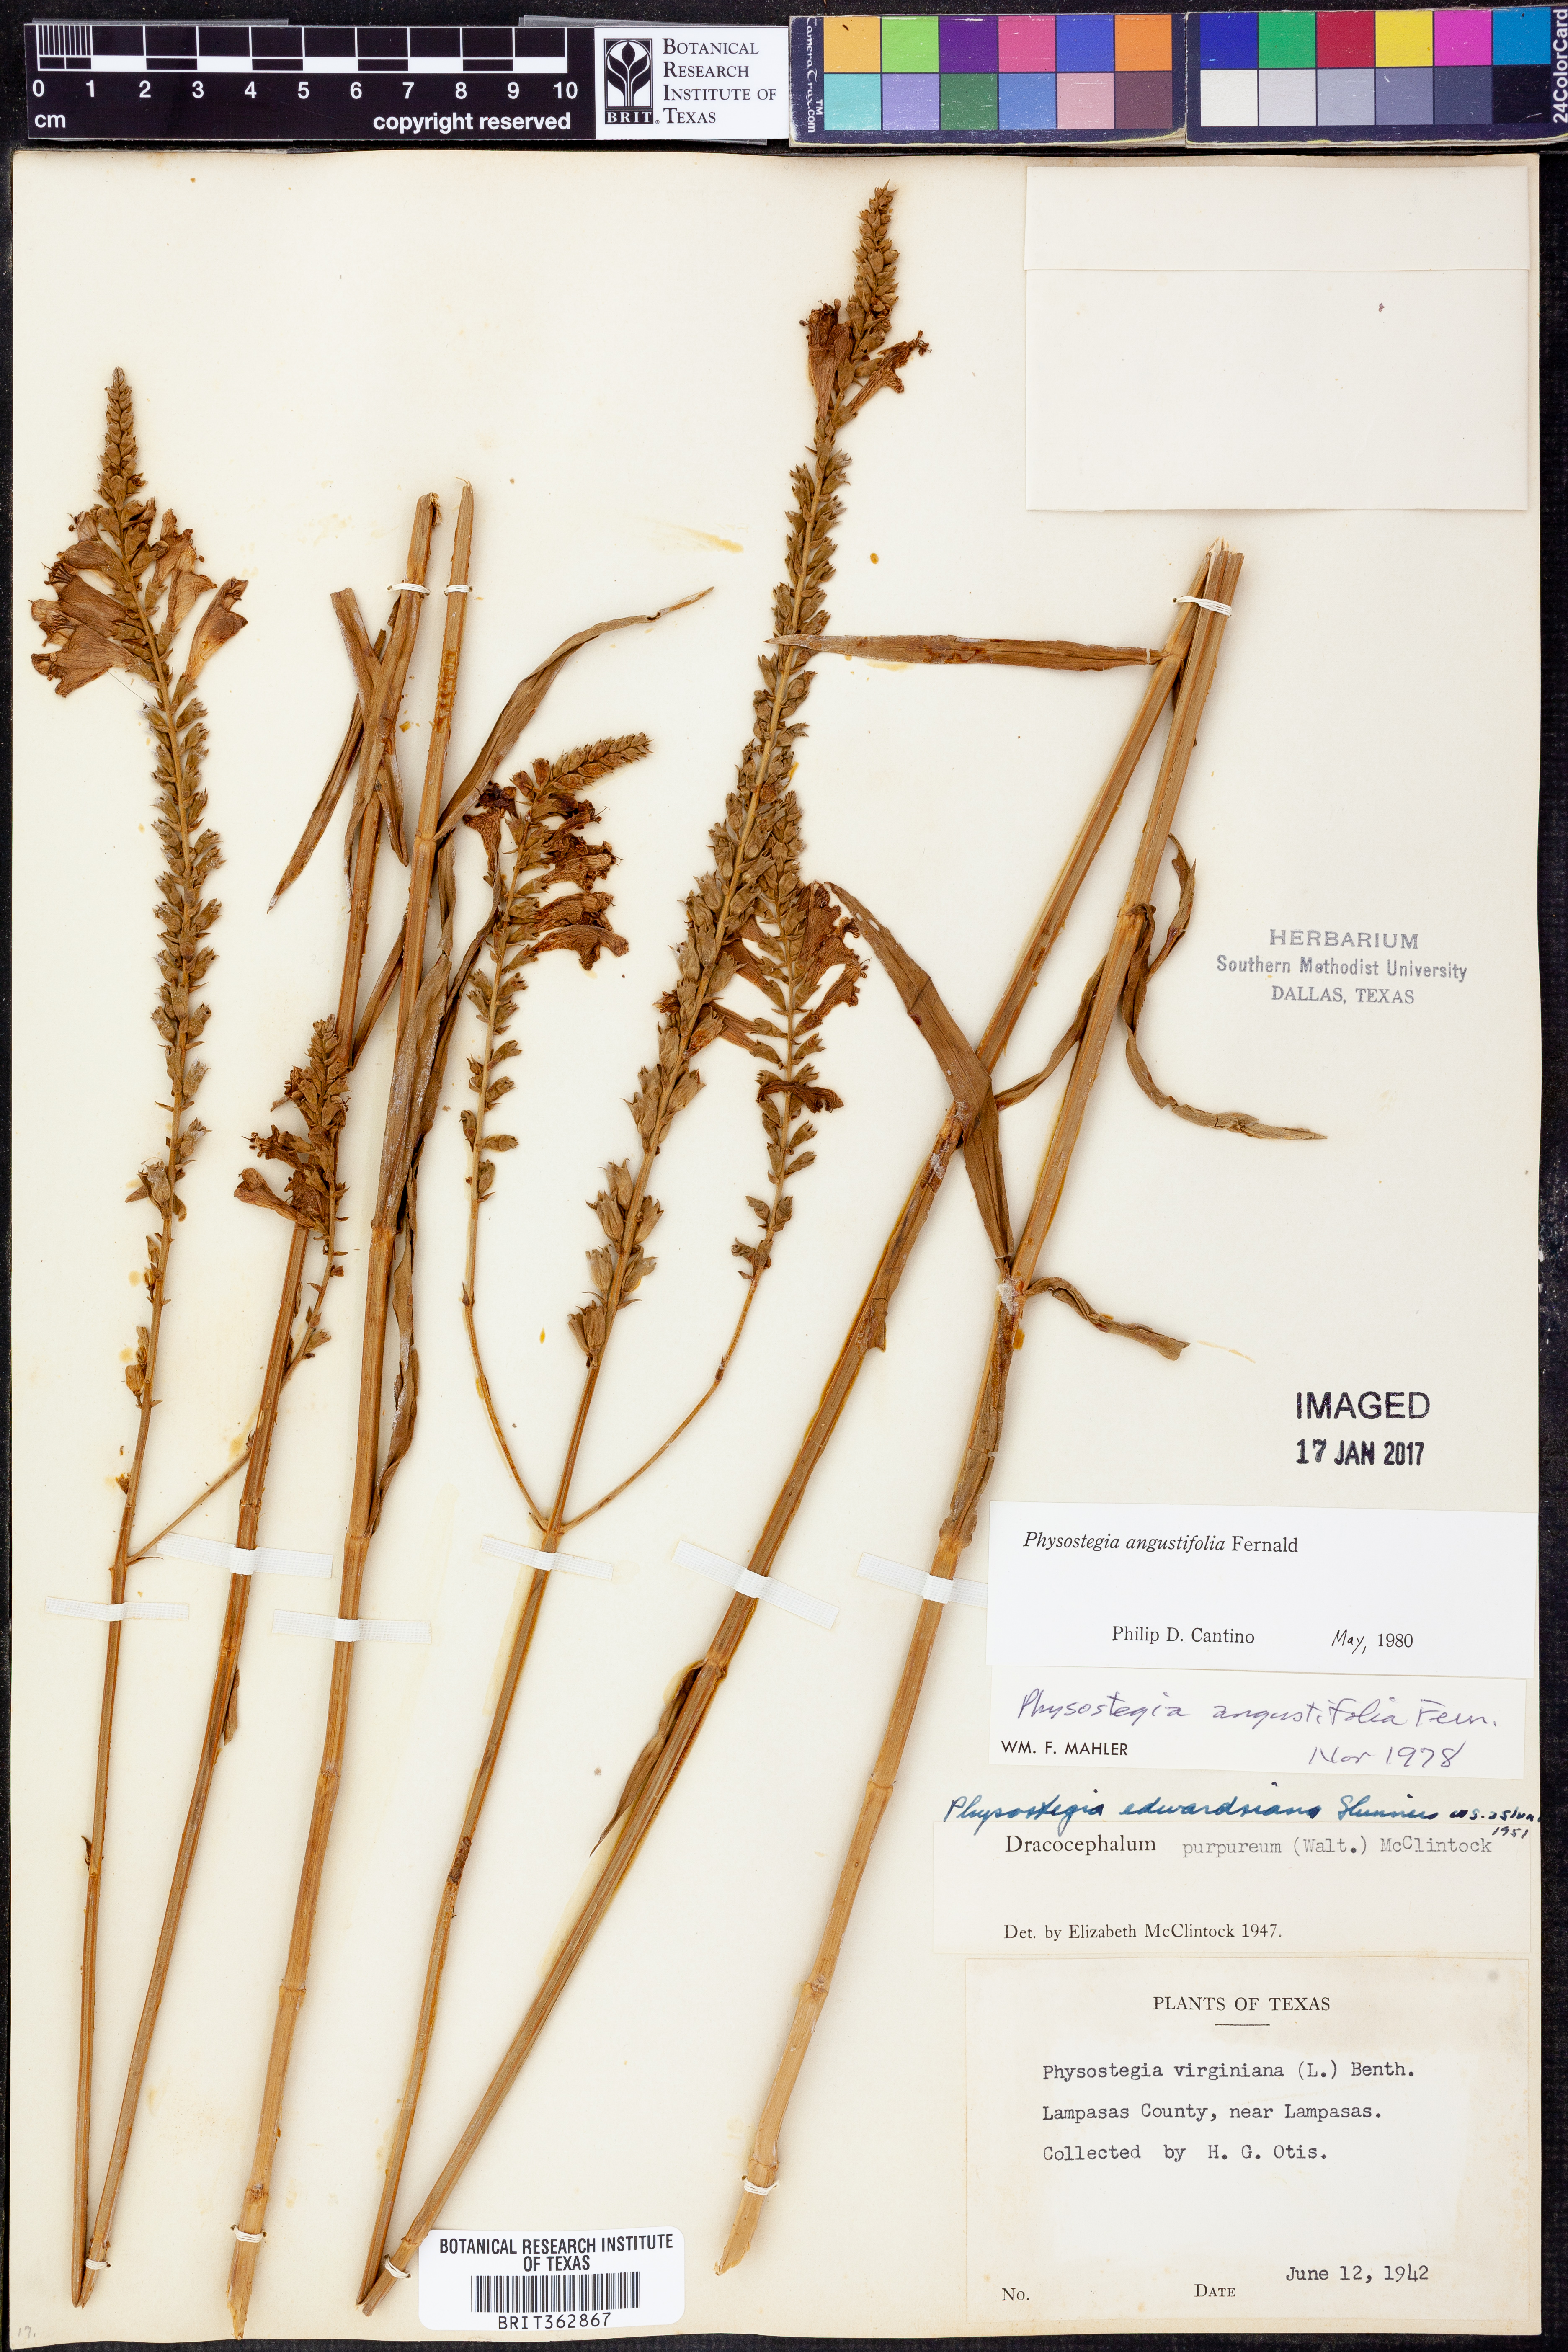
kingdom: Plantae
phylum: Tracheophyta
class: Magnoliopsida
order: Lamiales
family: Lamiaceae
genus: Physostegia
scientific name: Physostegia angustifolia
